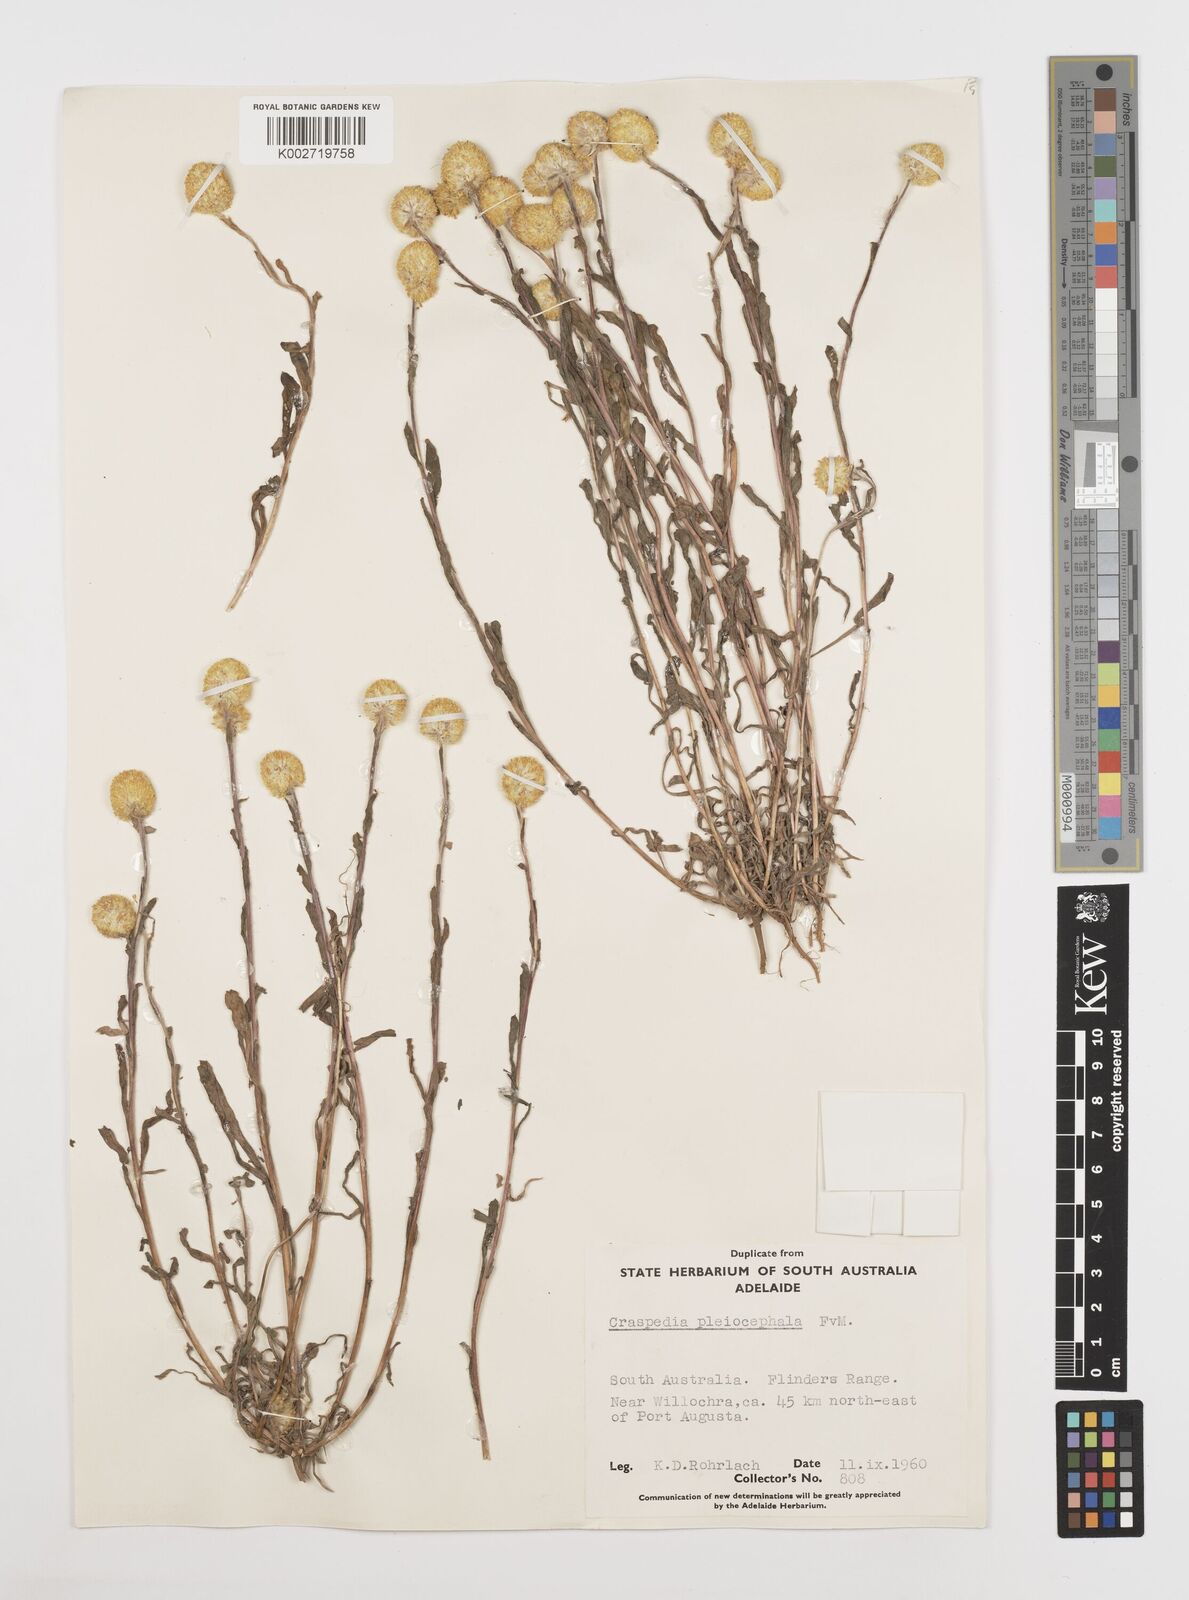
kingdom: Plantae
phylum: Tracheophyta
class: Magnoliopsida
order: Asterales
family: Asteraceae
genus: Pycnosorus
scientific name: Pycnosorus pleiocephalus
